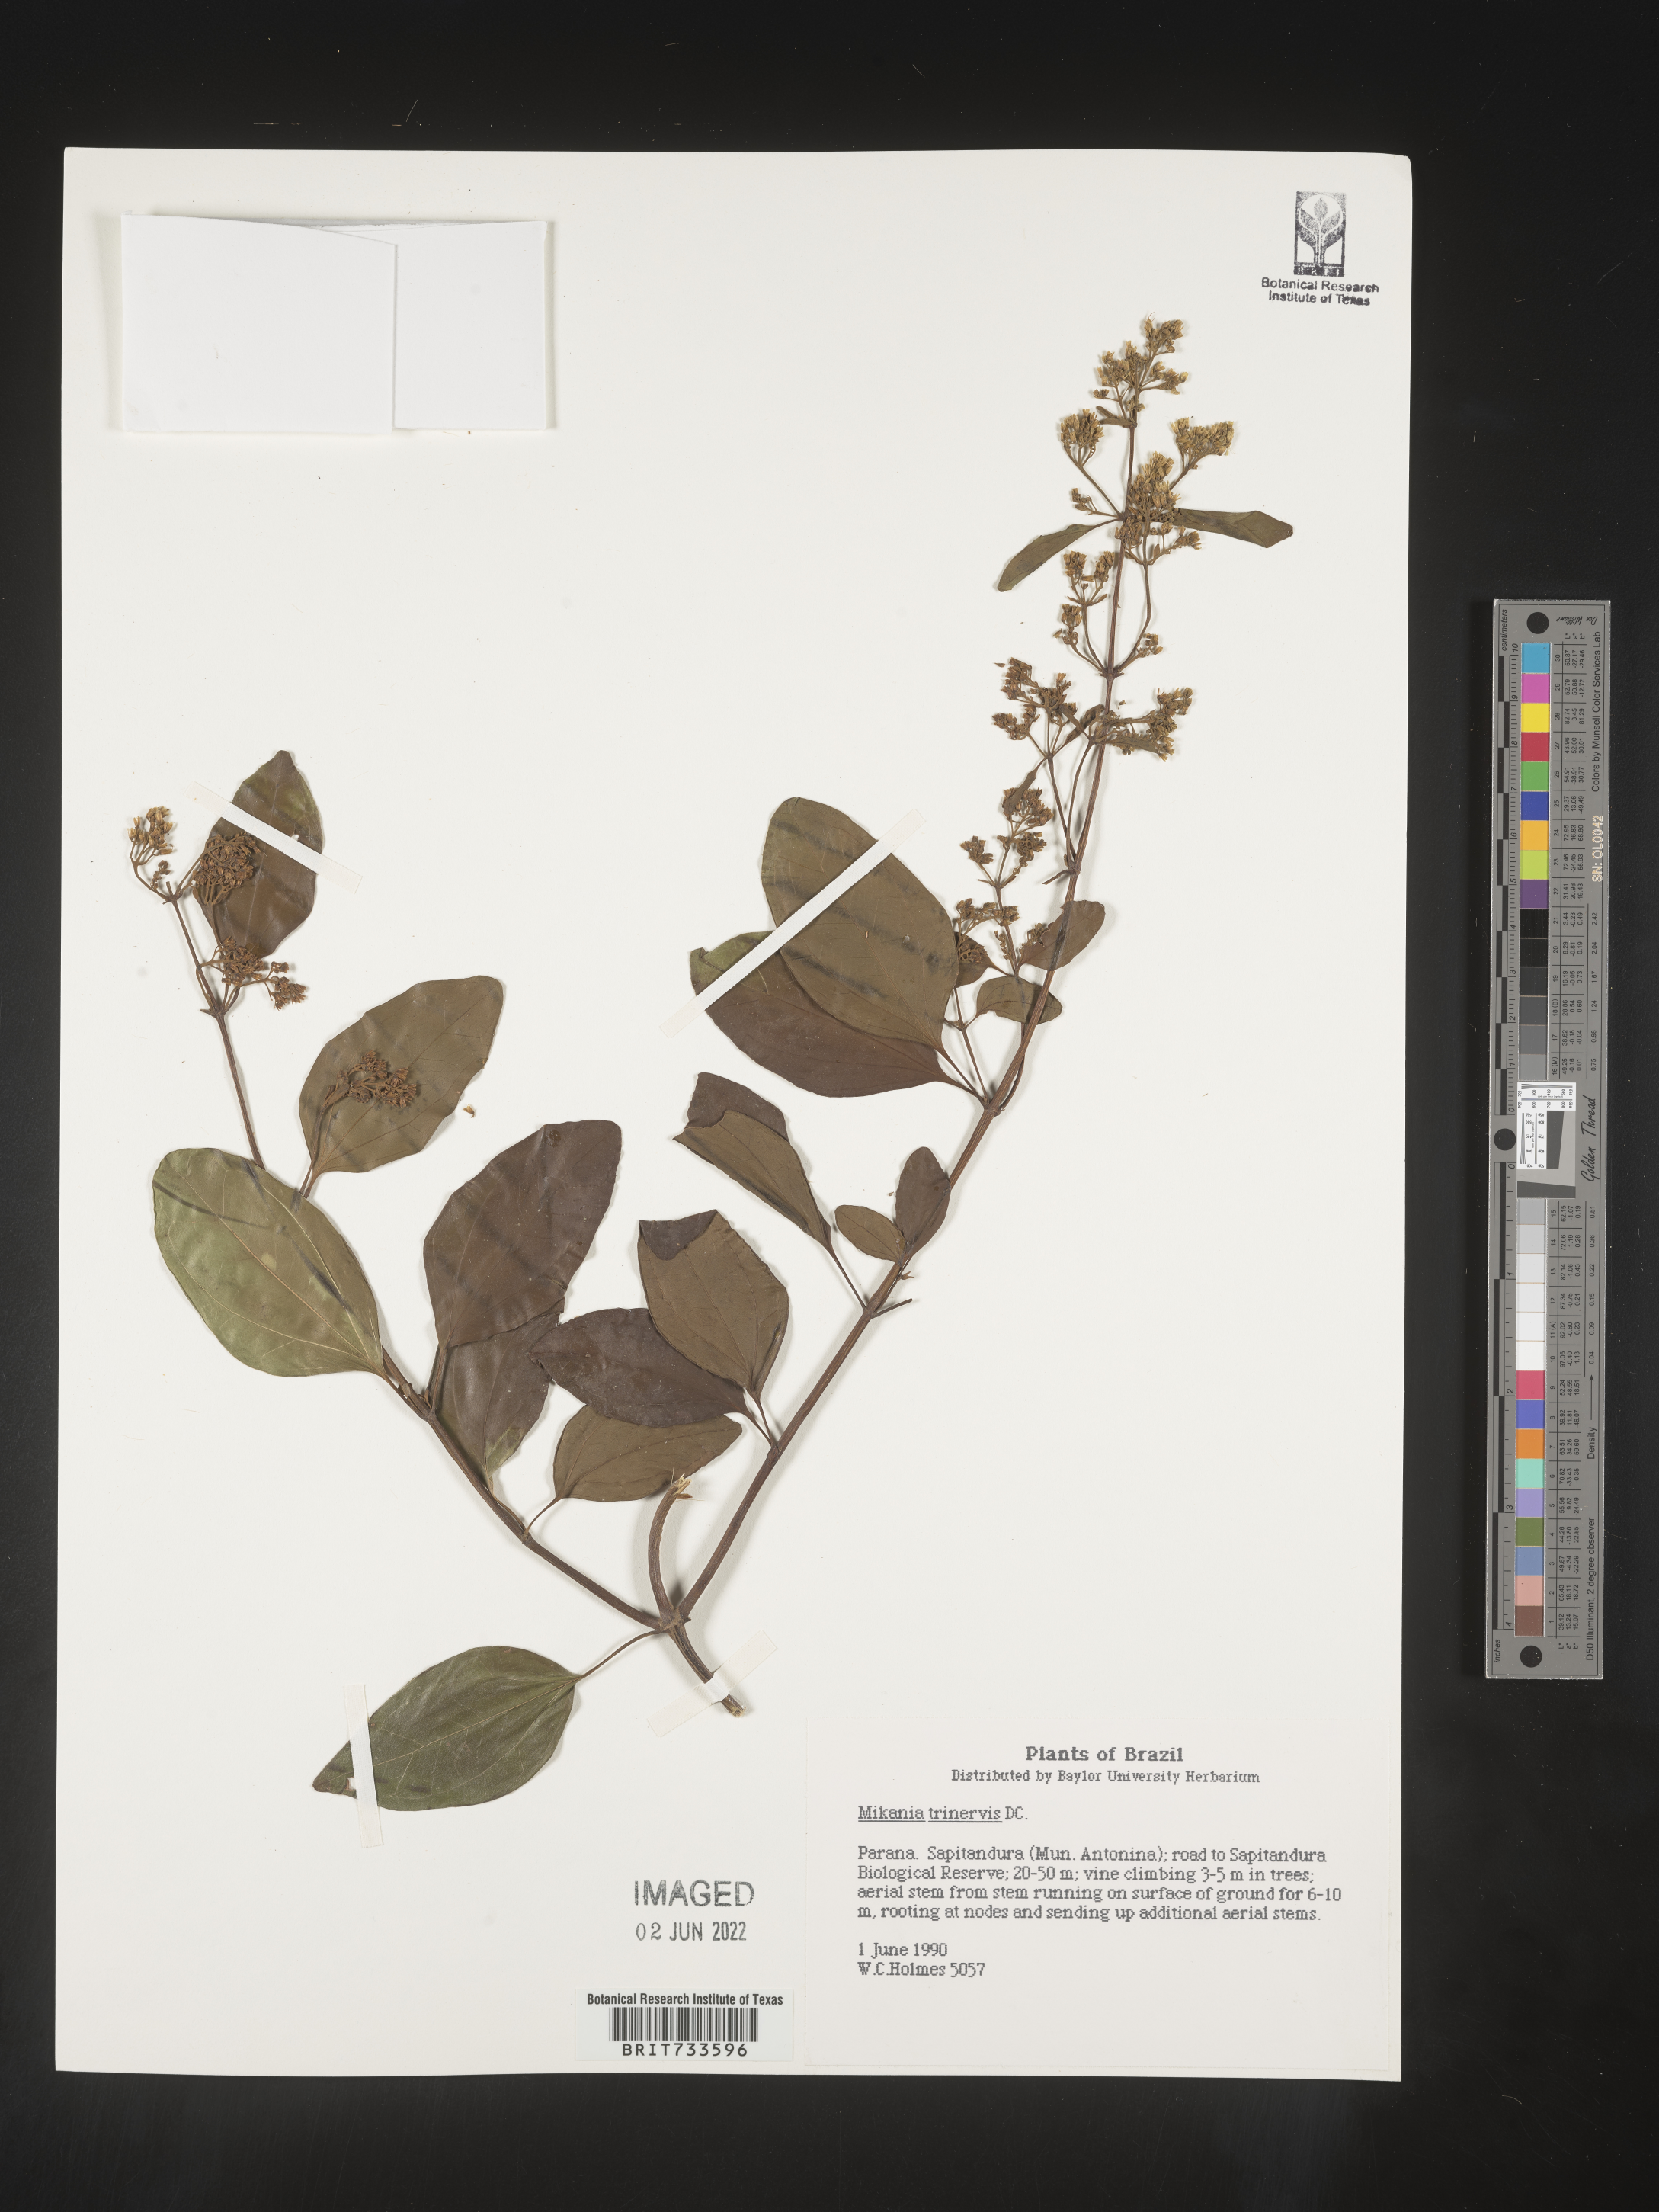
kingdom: Plantae
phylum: Tracheophyta
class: Magnoliopsida
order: Asterales
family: Asteraceae
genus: Mikania
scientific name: Mikania
